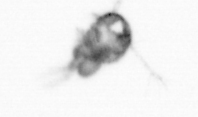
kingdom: Animalia
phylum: Arthropoda
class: Copepoda
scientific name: Copepoda
